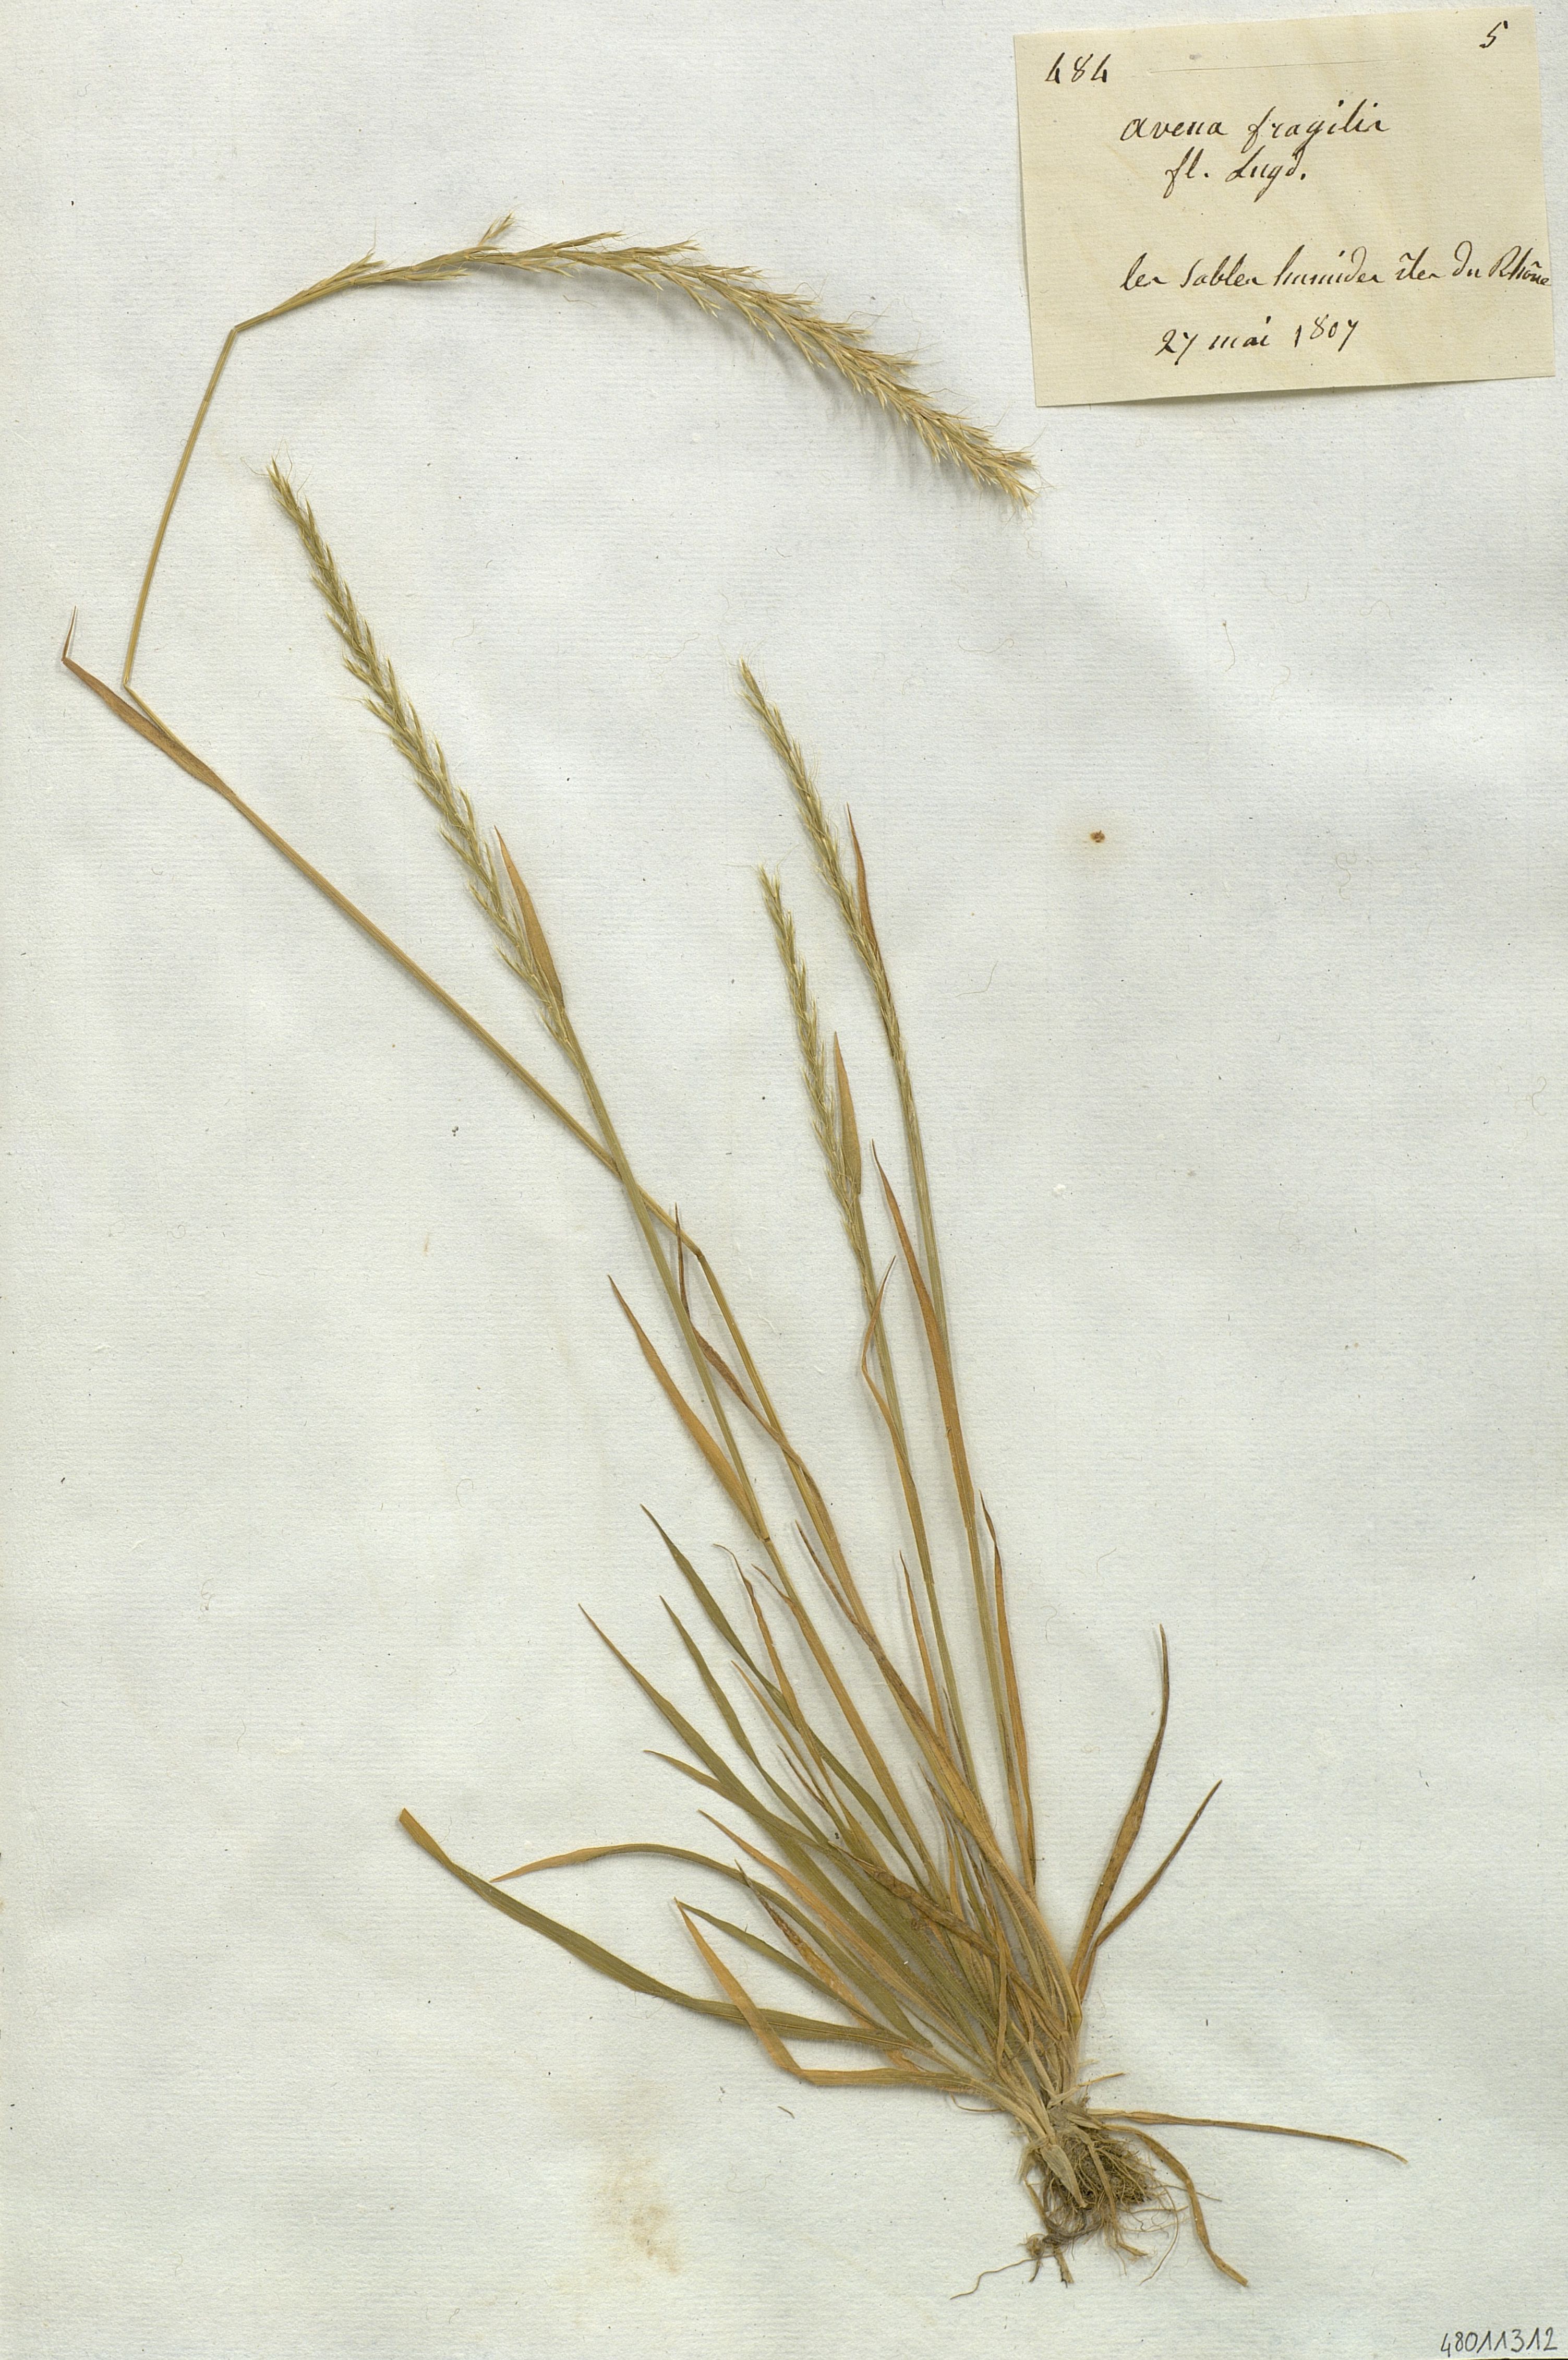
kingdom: Plantae
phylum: Tracheophyta
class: Liliopsida
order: Poales
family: Poaceae
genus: Gaudinia
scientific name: Gaudinia fragilis
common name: French oat-grass
